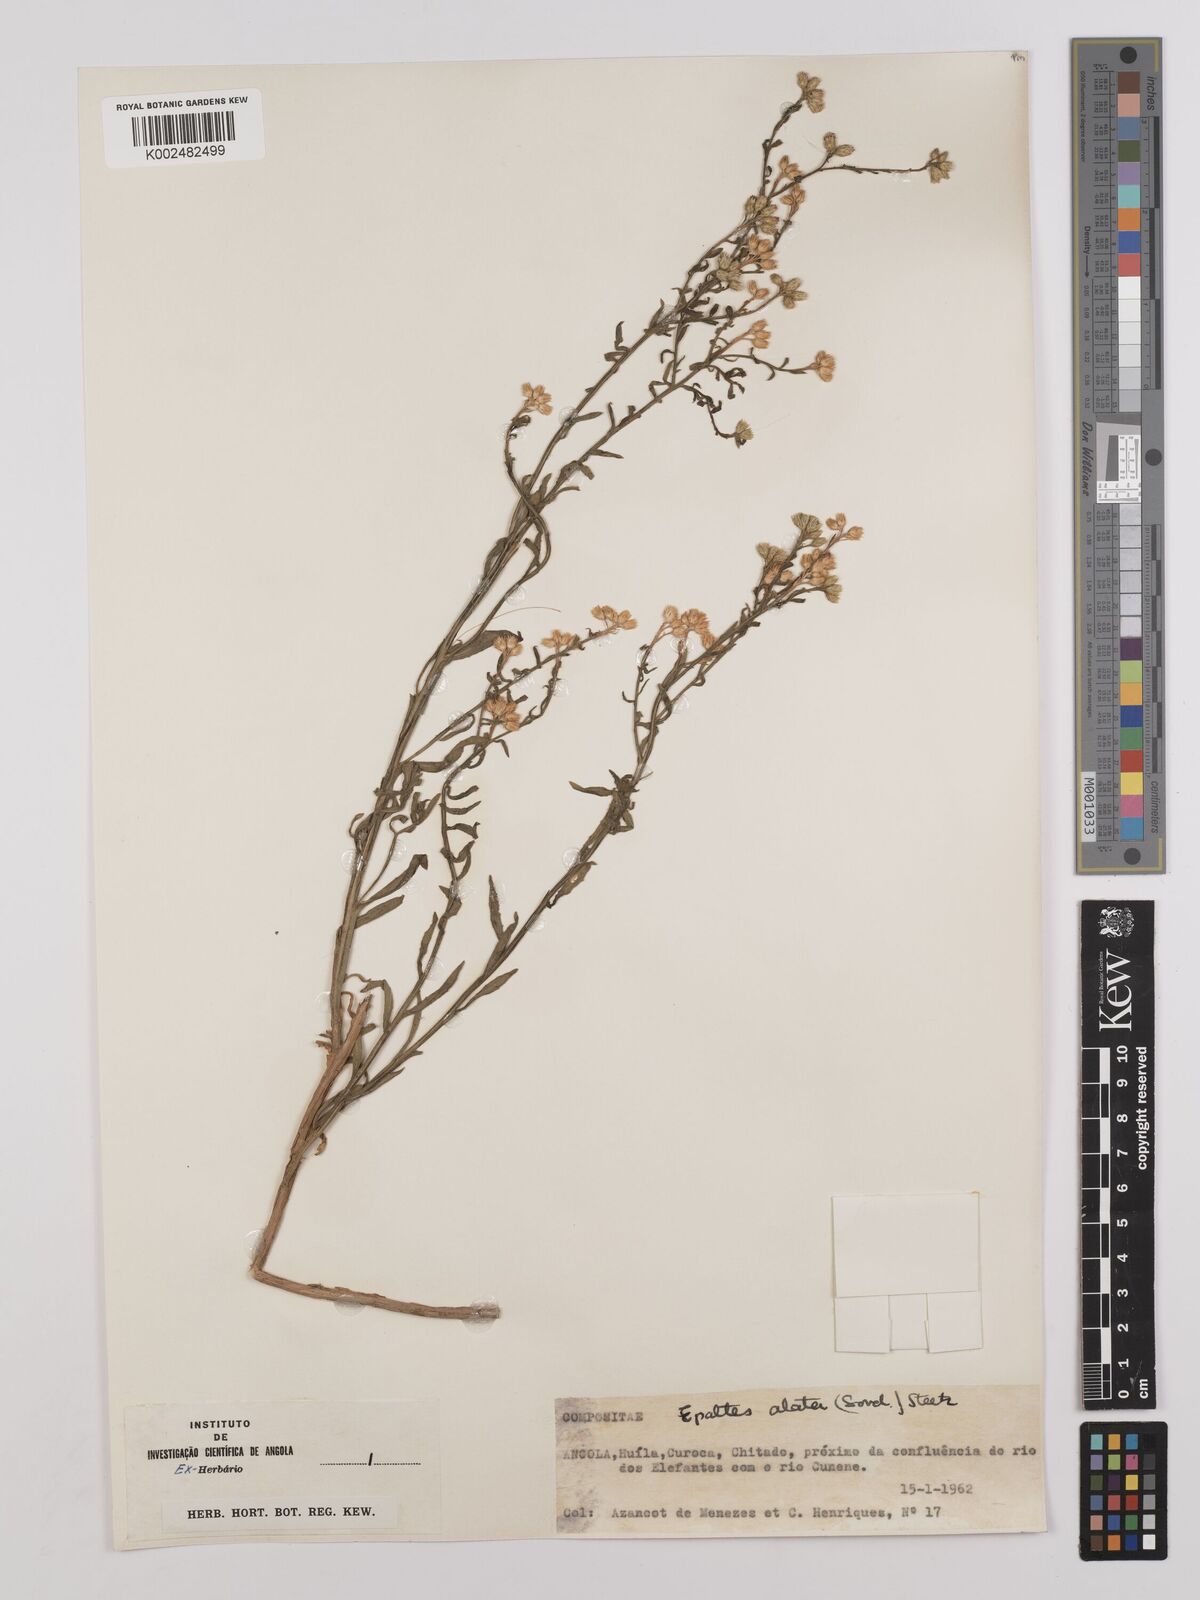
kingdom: Plantae
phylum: Tracheophyta
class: Magnoliopsida
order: Asterales
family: Asteraceae
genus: Litogyne
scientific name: Litogyne gariepina
